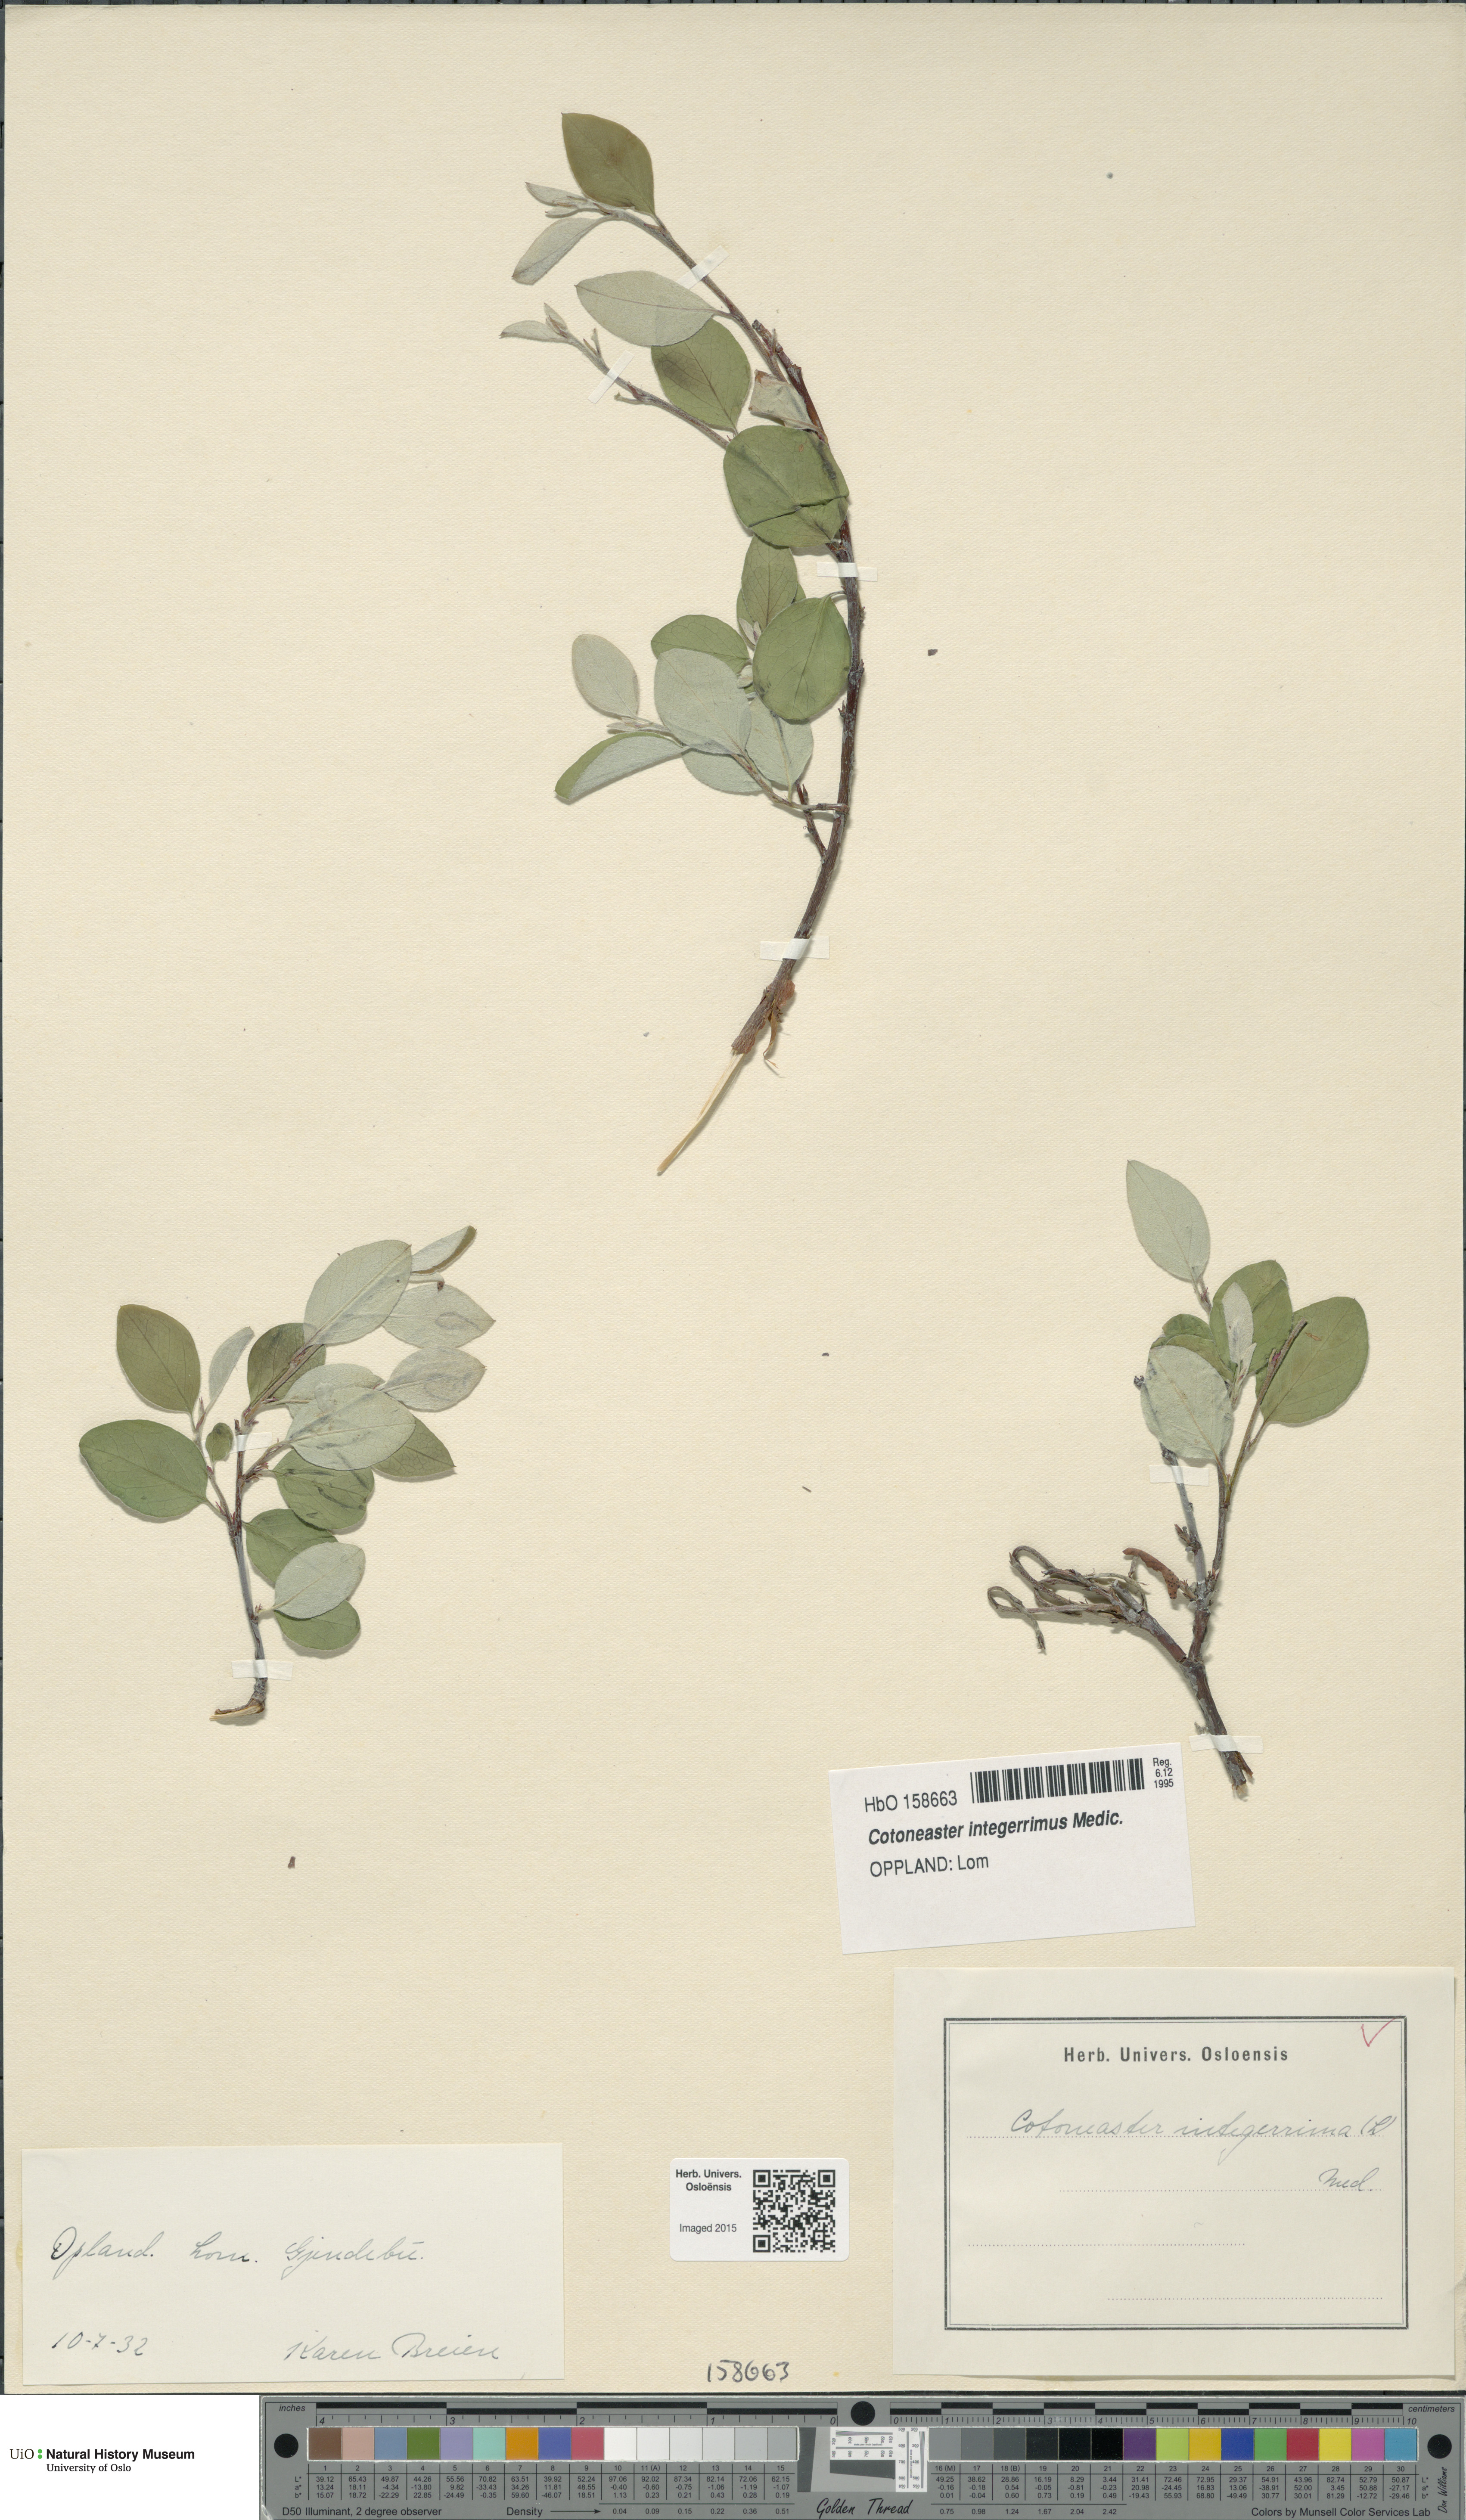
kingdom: Plantae
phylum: Tracheophyta
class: Magnoliopsida
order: Rosales
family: Rosaceae
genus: Cotoneaster
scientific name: Cotoneaster integerrimus
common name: Wild cotoneaster
